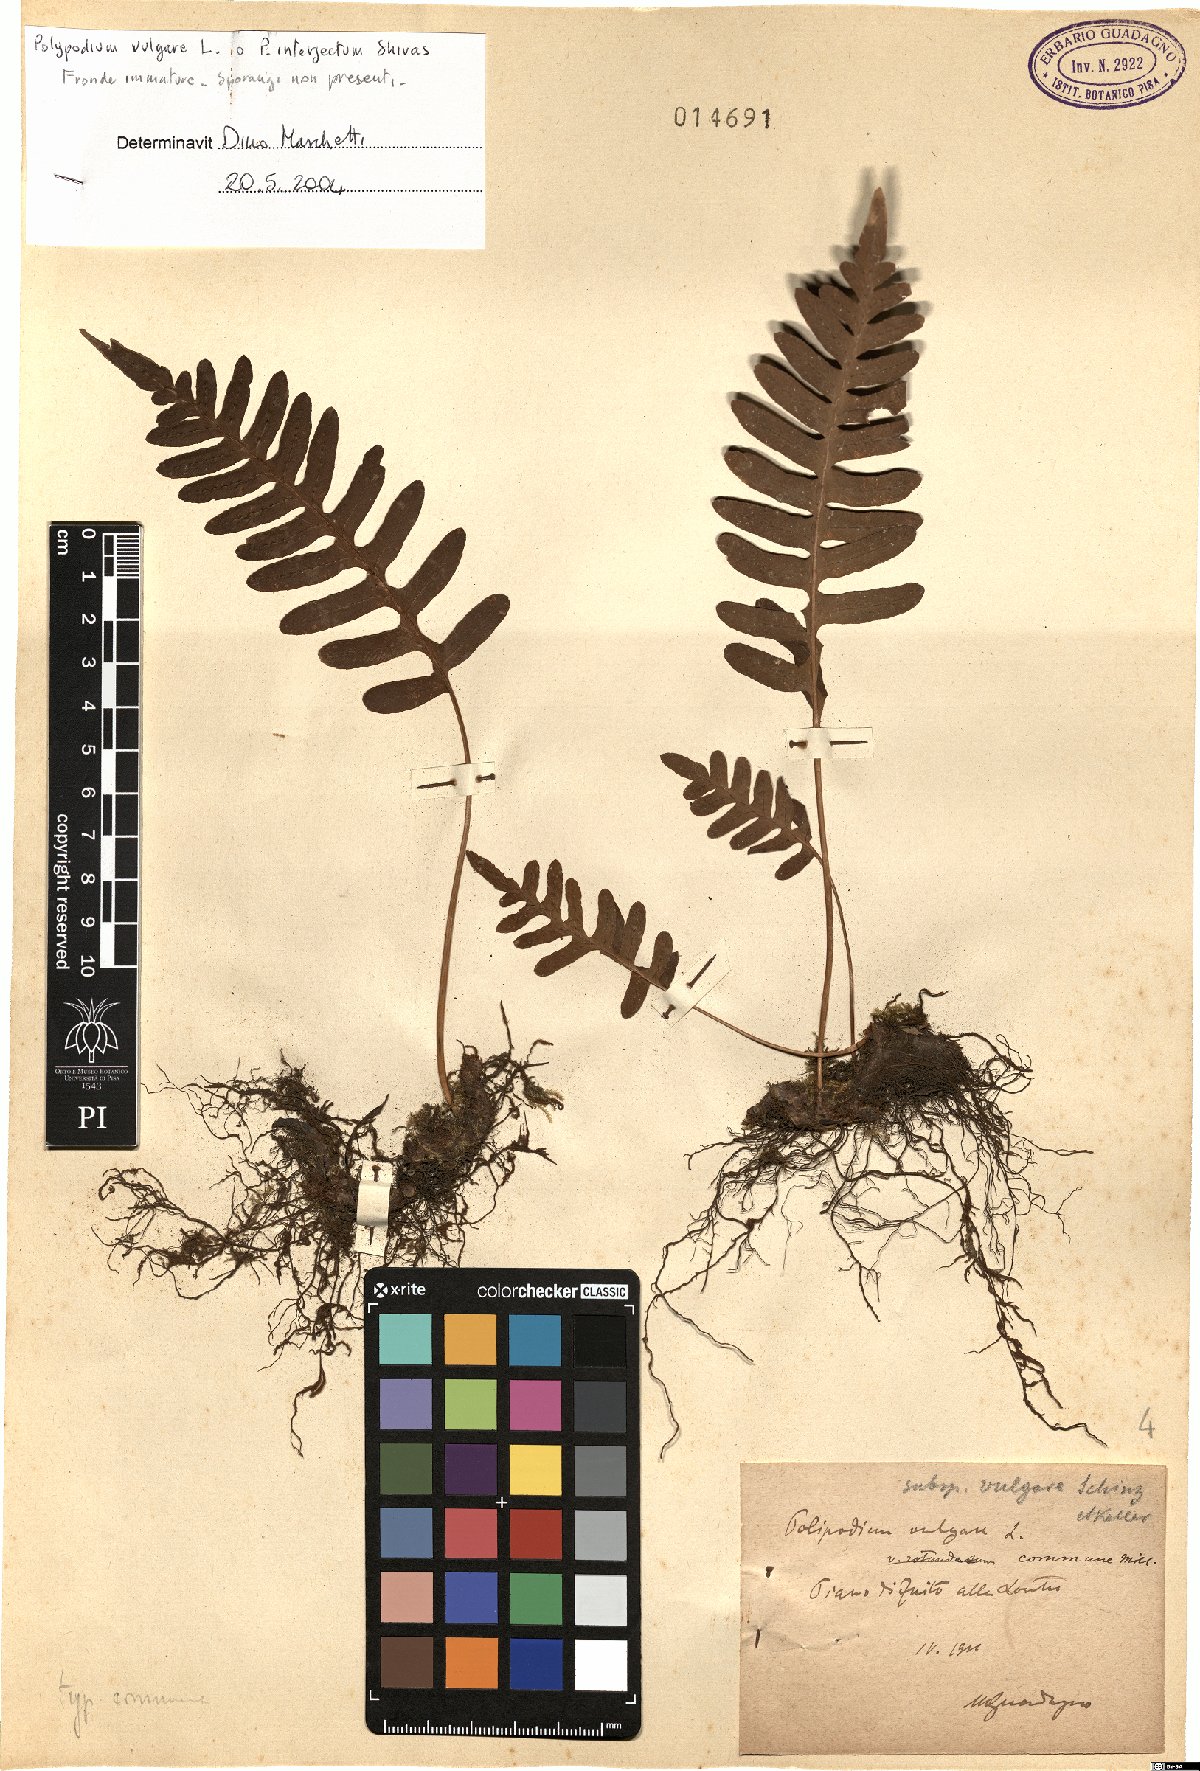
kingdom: Plantae
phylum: Tracheophyta
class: Polypodiopsida
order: Polypodiales
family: Polypodiaceae
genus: Polypodium
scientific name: Polypodium vulgare
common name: Common polypody
